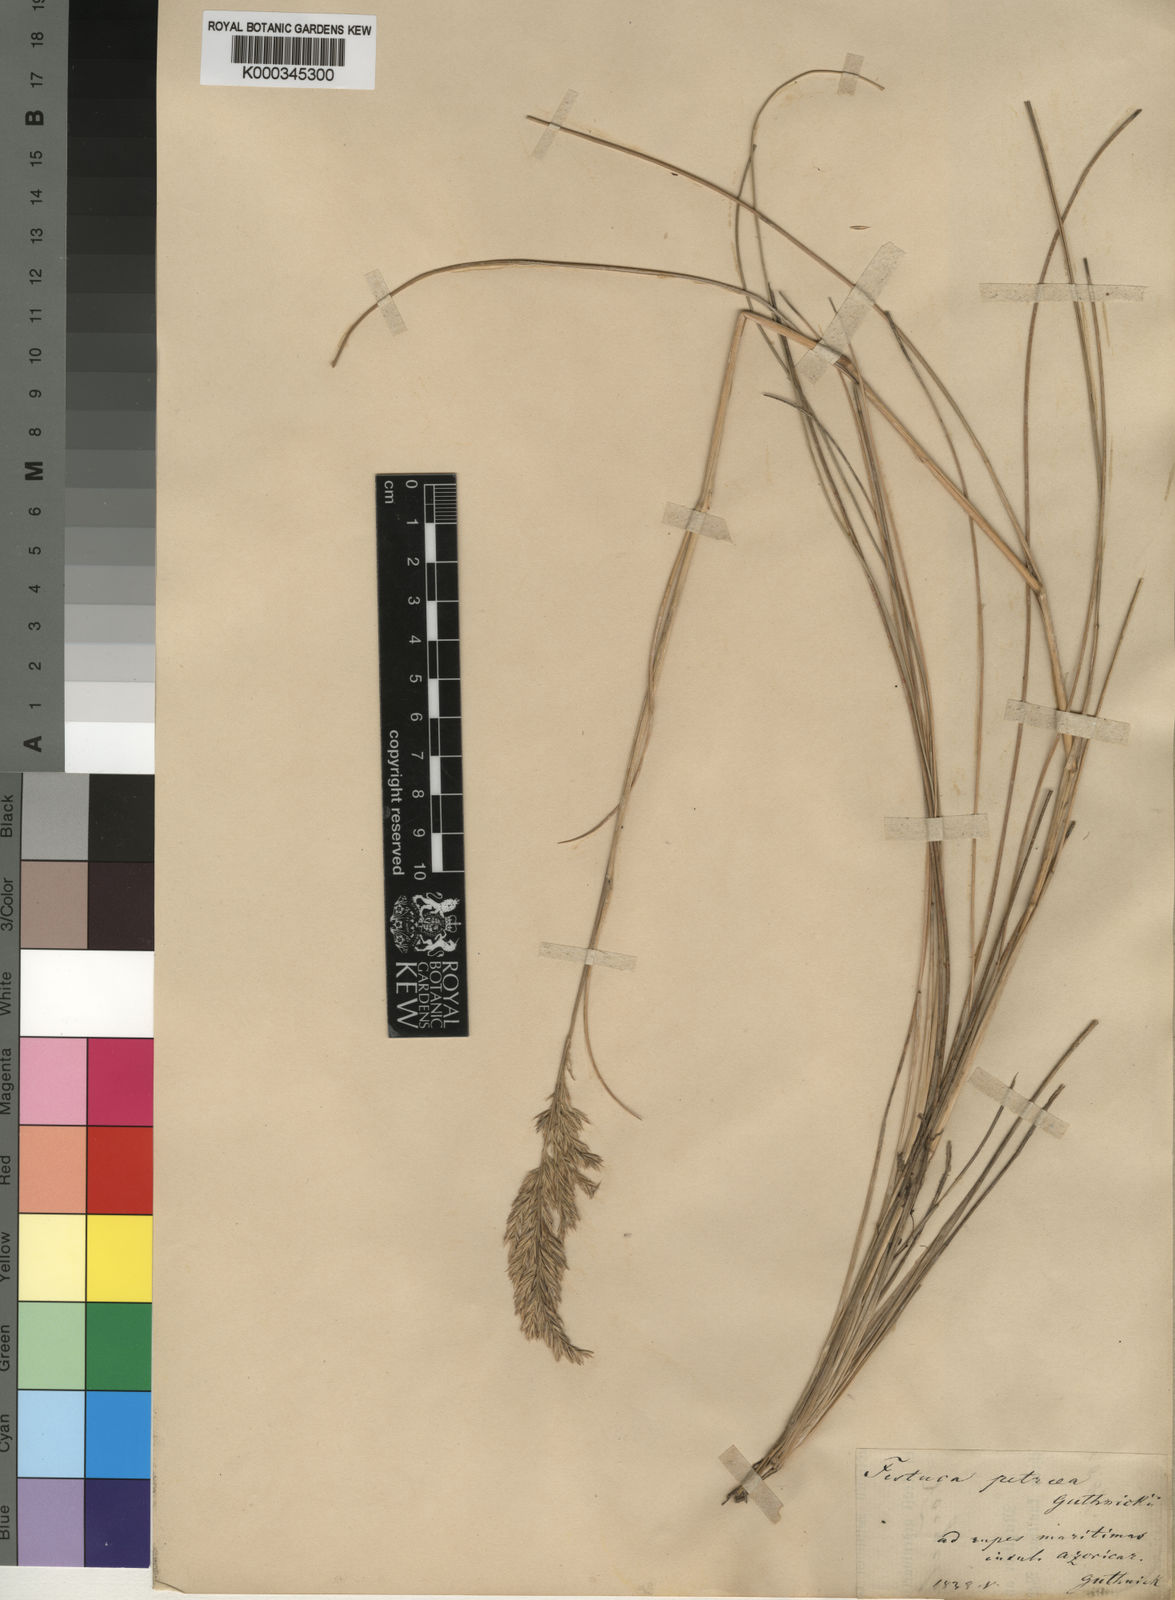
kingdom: Plantae
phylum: Tracheophyta
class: Liliopsida
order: Poales
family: Poaceae
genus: Festuca
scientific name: Festuca
